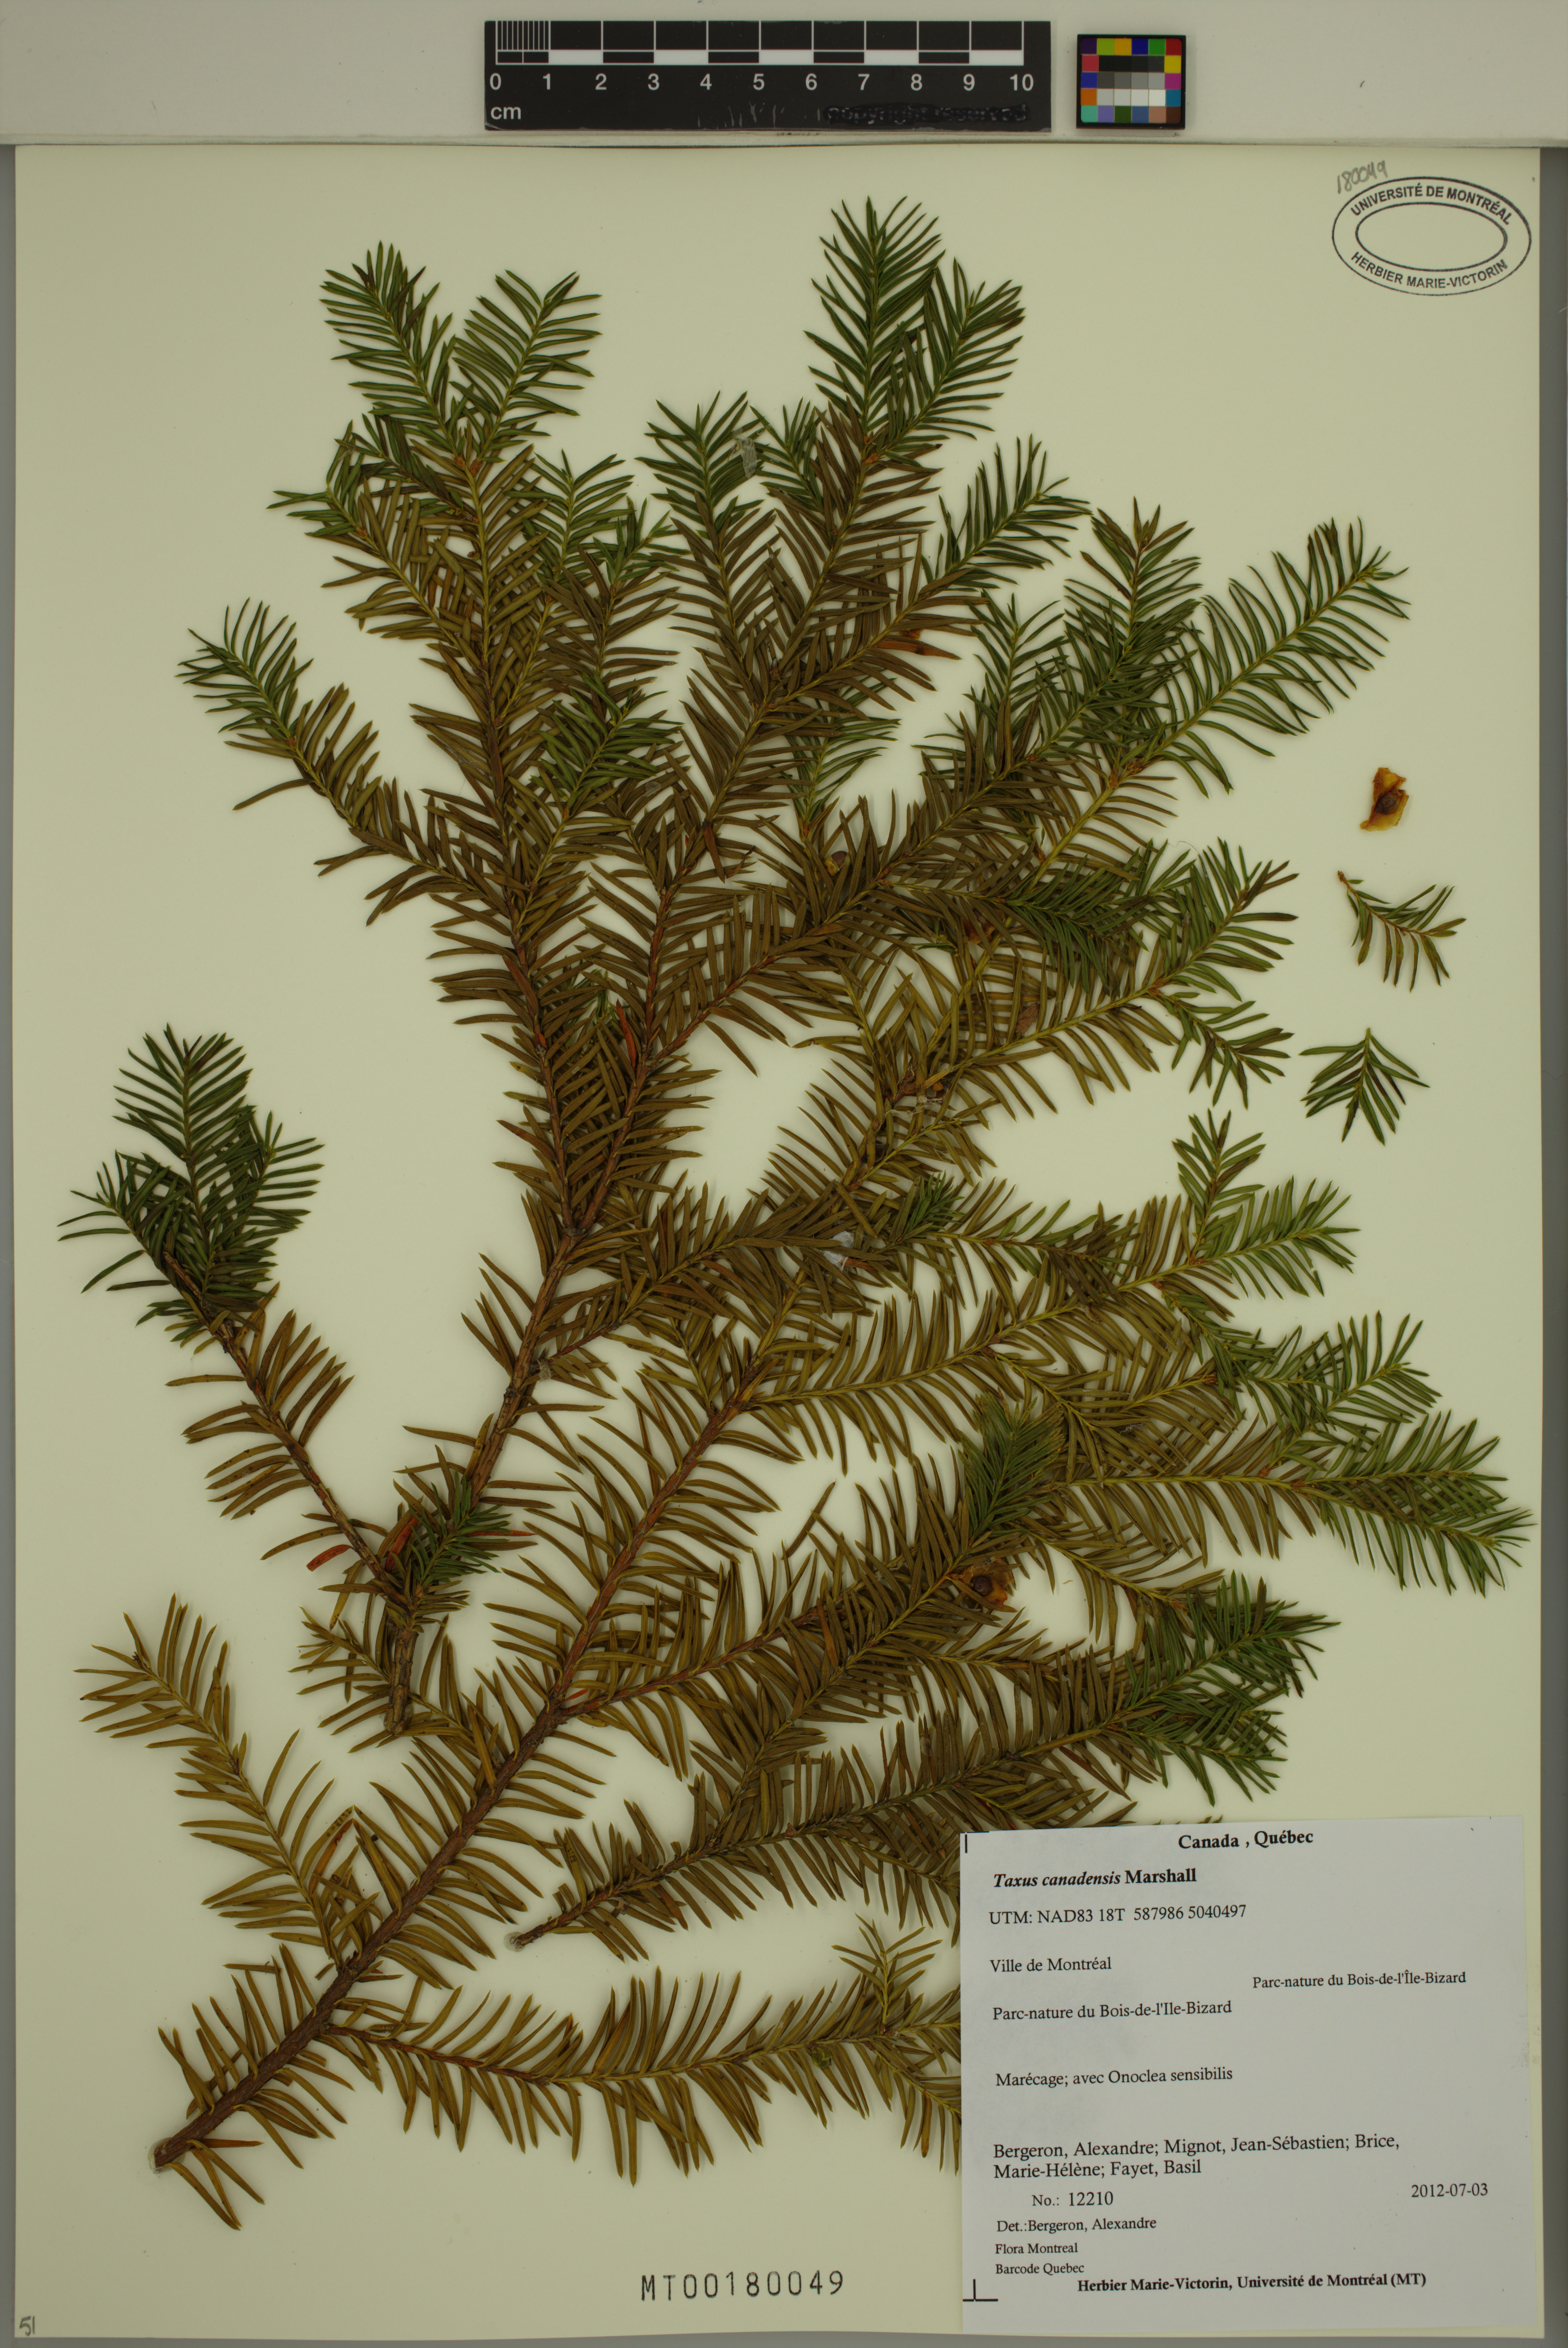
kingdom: Plantae
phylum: Tracheophyta
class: Pinopsida
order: Pinales
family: Taxaceae
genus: Taxus
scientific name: Taxus canadensis
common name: American yew
